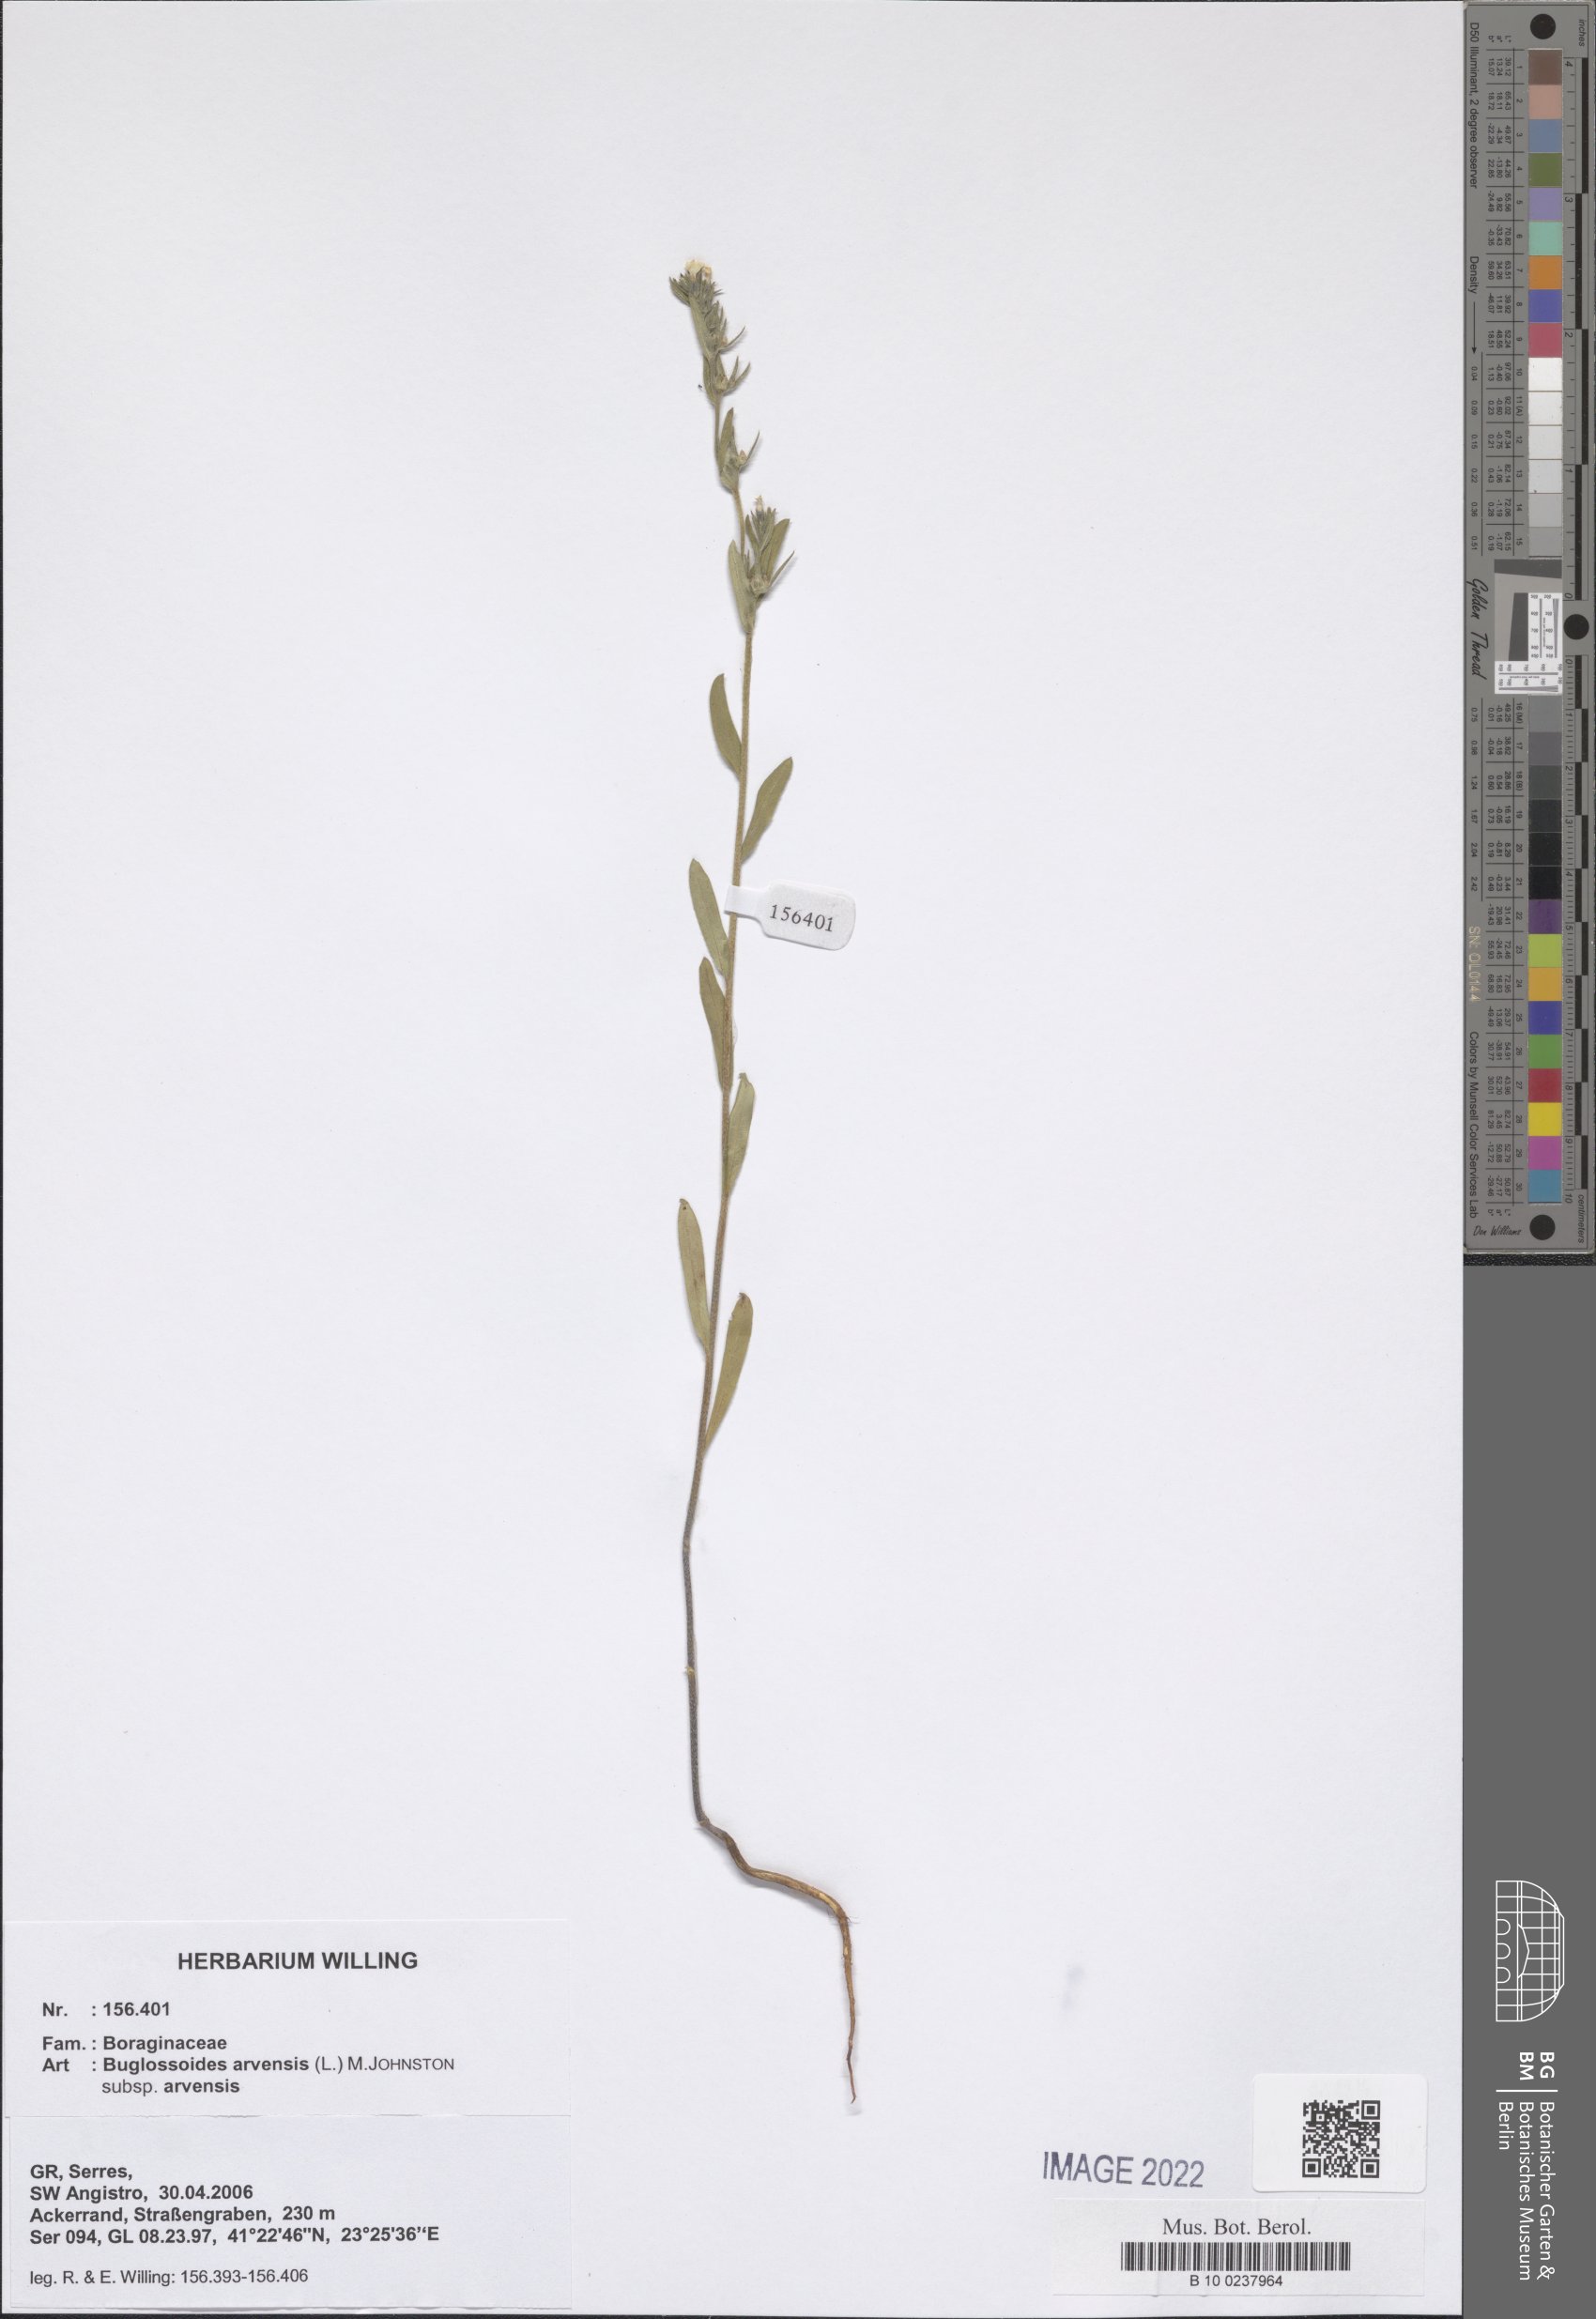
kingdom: Plantae
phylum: Tracheophyta
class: Magnoliopsida
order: Boraginales
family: Boraginaceae
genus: Buglossoides
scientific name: Buglossoides arvensis
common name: Corn gromwell
